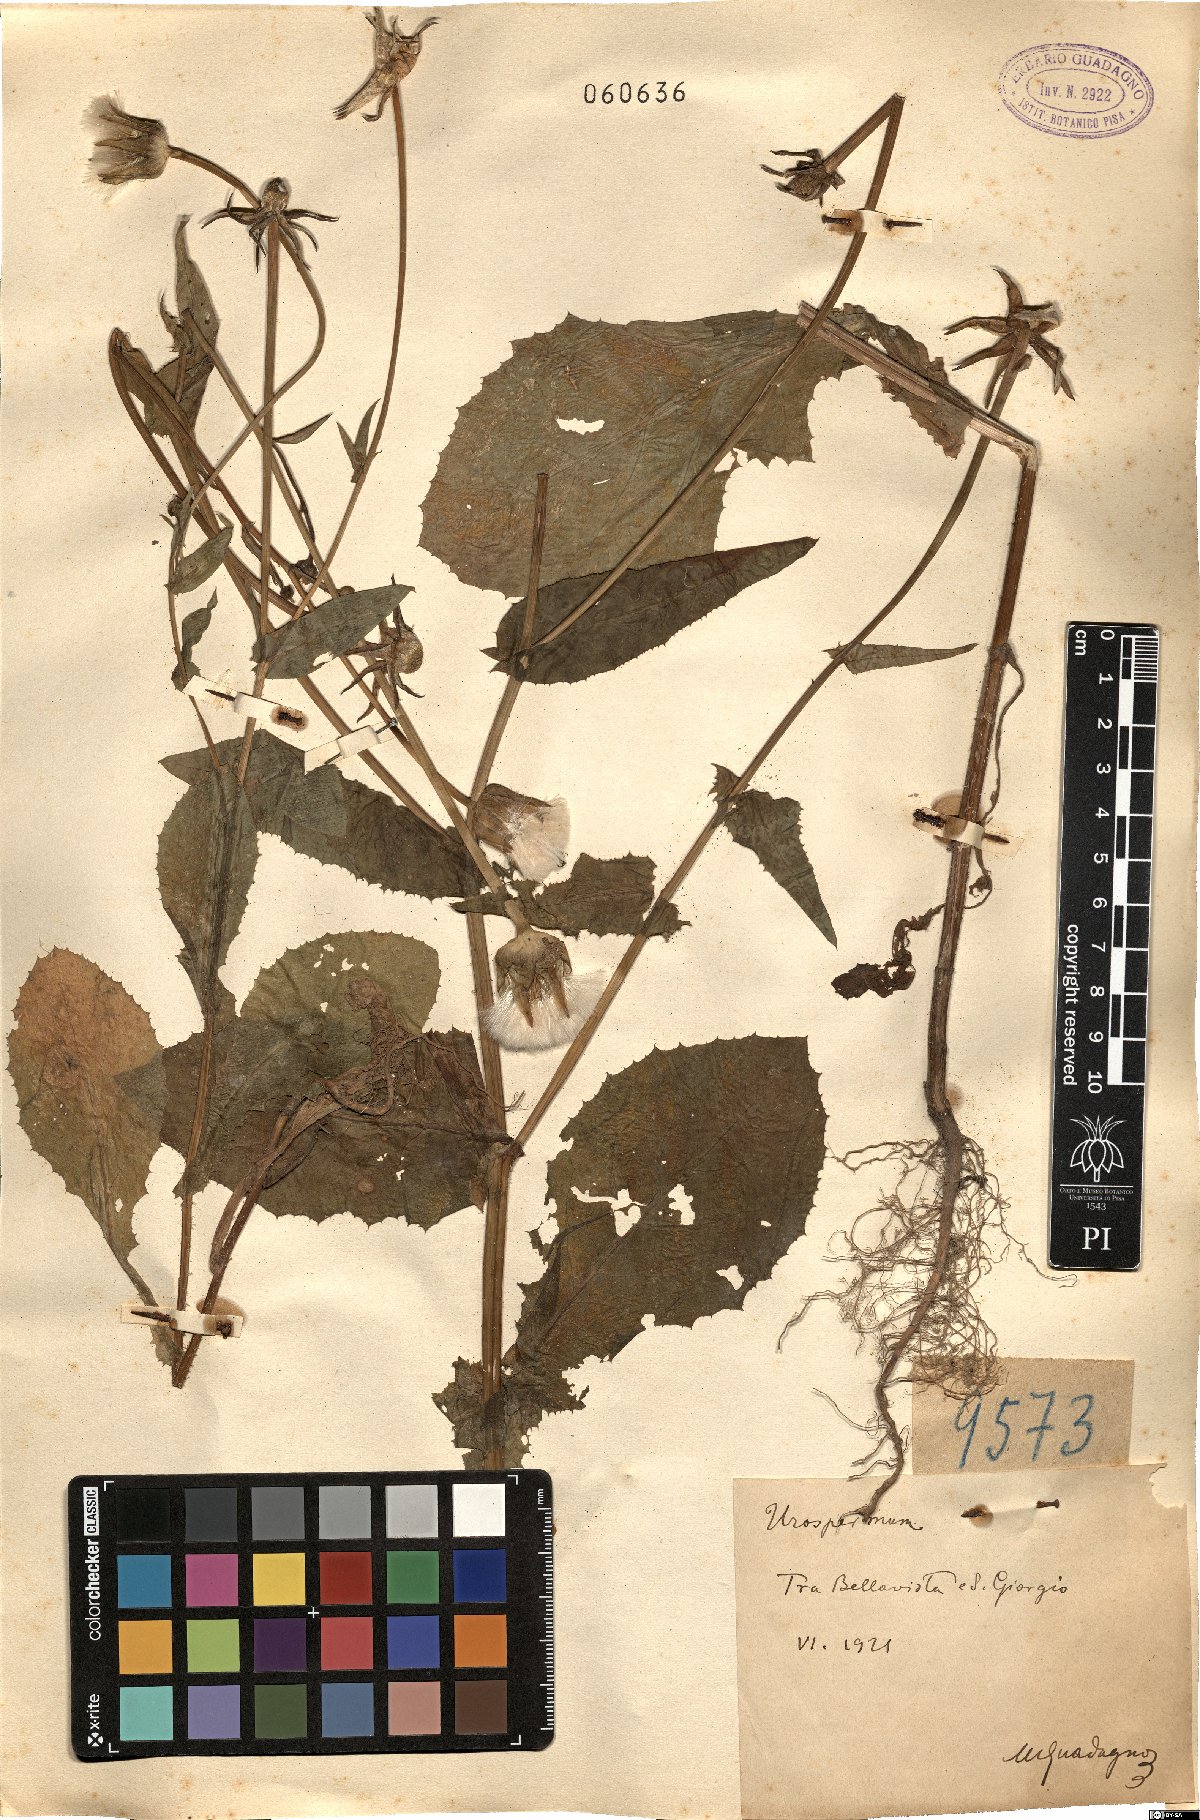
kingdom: Plantae
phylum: Tracheophyta
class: Magnoliopsida
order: Asterales
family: Asteraceae
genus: Urospermum
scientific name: Urospermum
